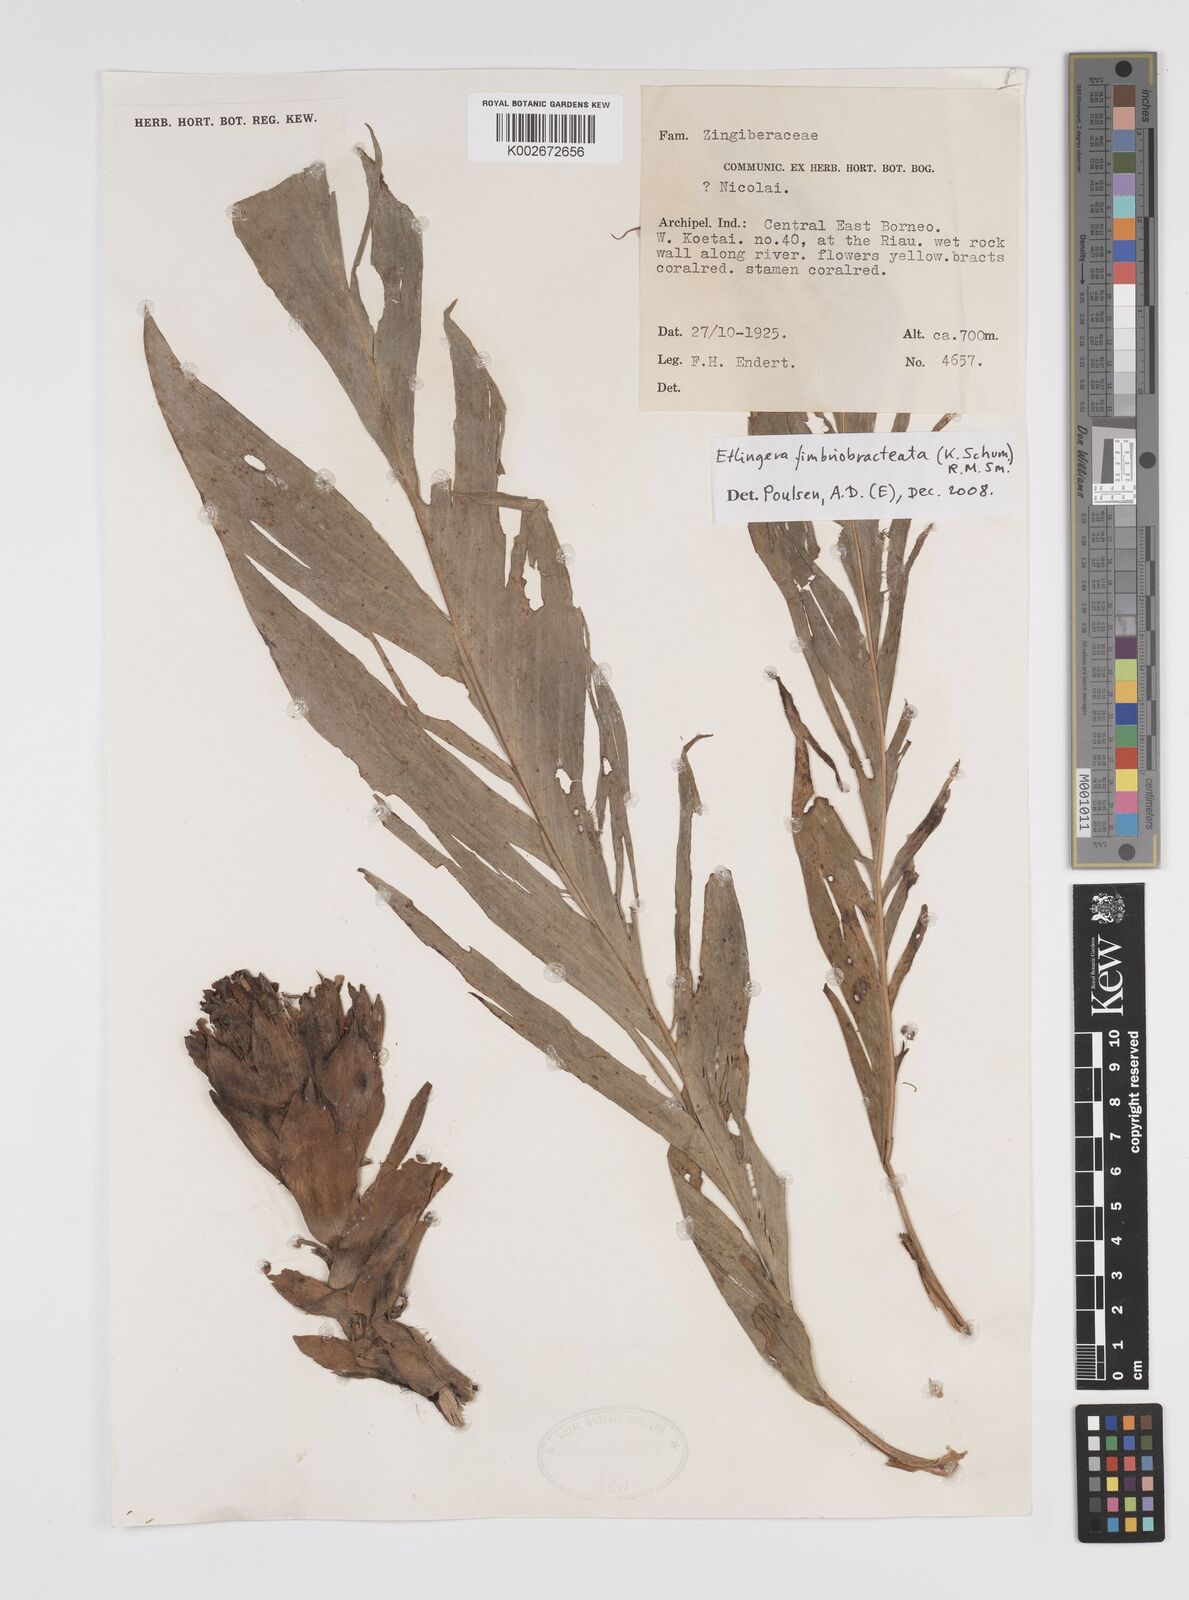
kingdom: Plantae
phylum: Tracheophyta
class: Liliopsida
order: Zingiberales
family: Zingiberaceae
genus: Etlingera
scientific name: Etlingera fimbriobracteata
